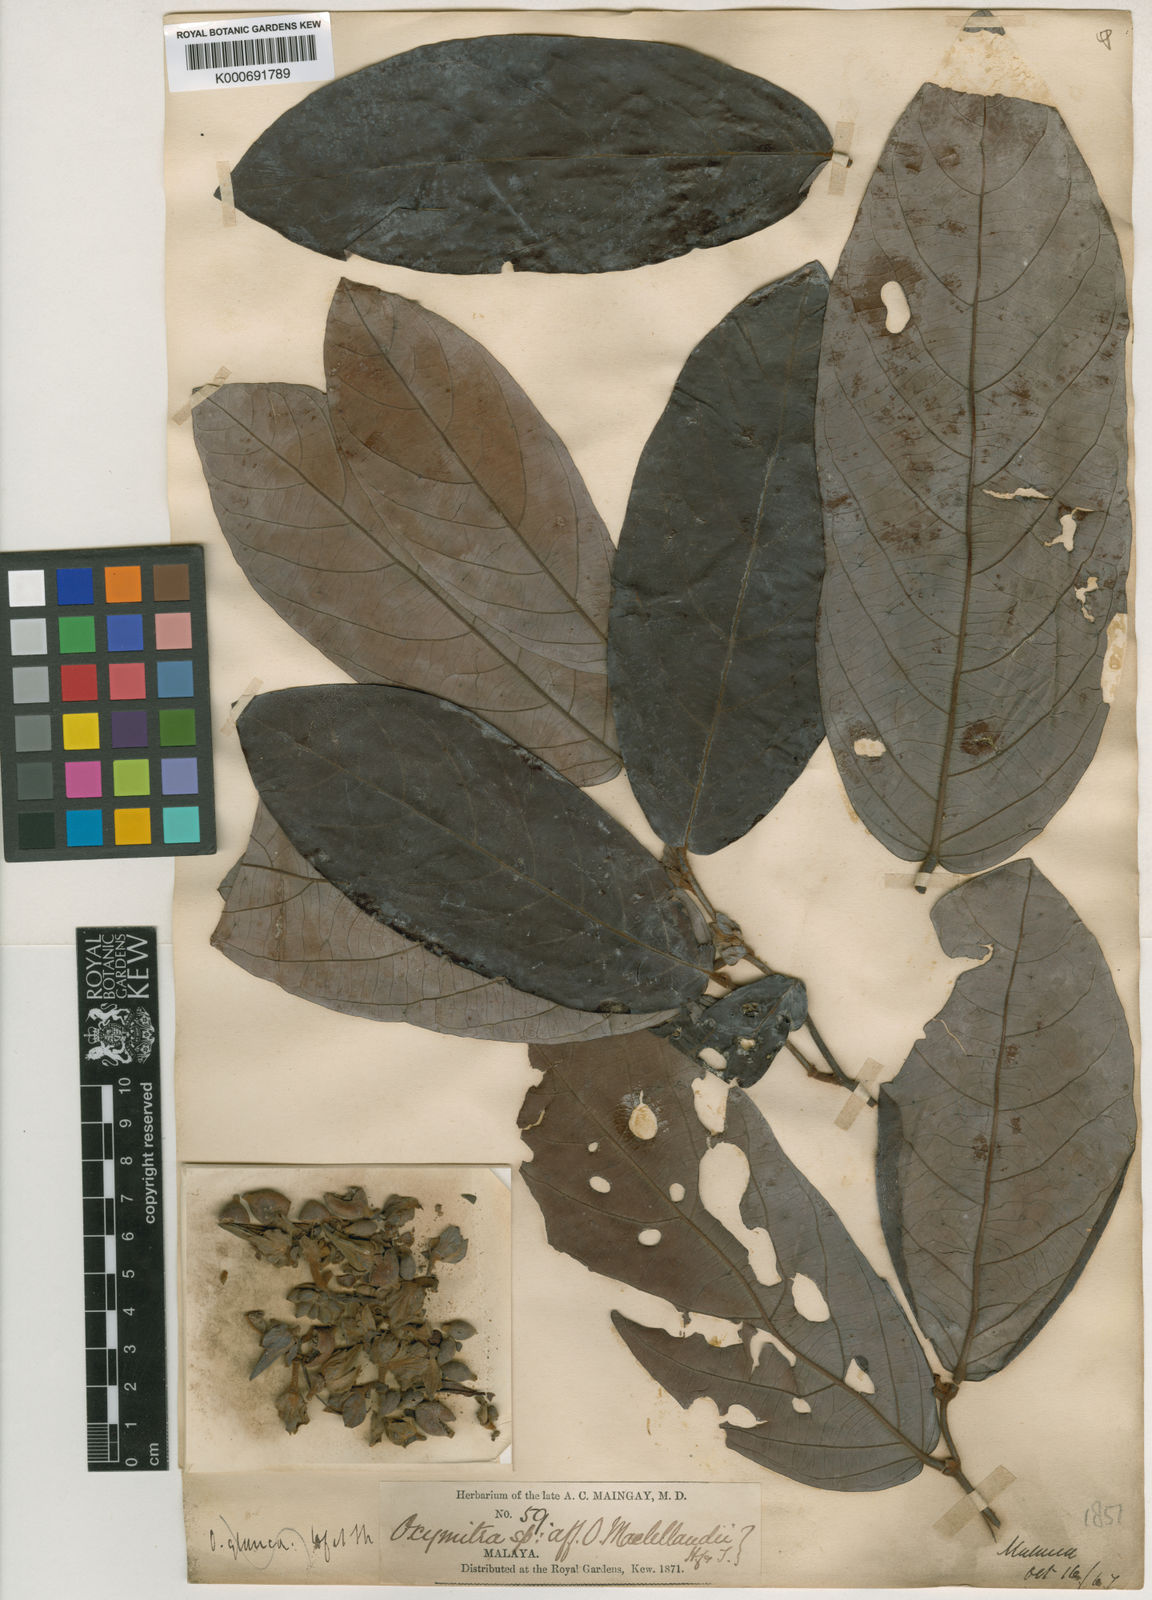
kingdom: Plantae
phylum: Tracheophyta
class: Magnoliopsida
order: Magnoliales
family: Annonaceae
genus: Friesodielsia
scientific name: Friesodielsia affinis
